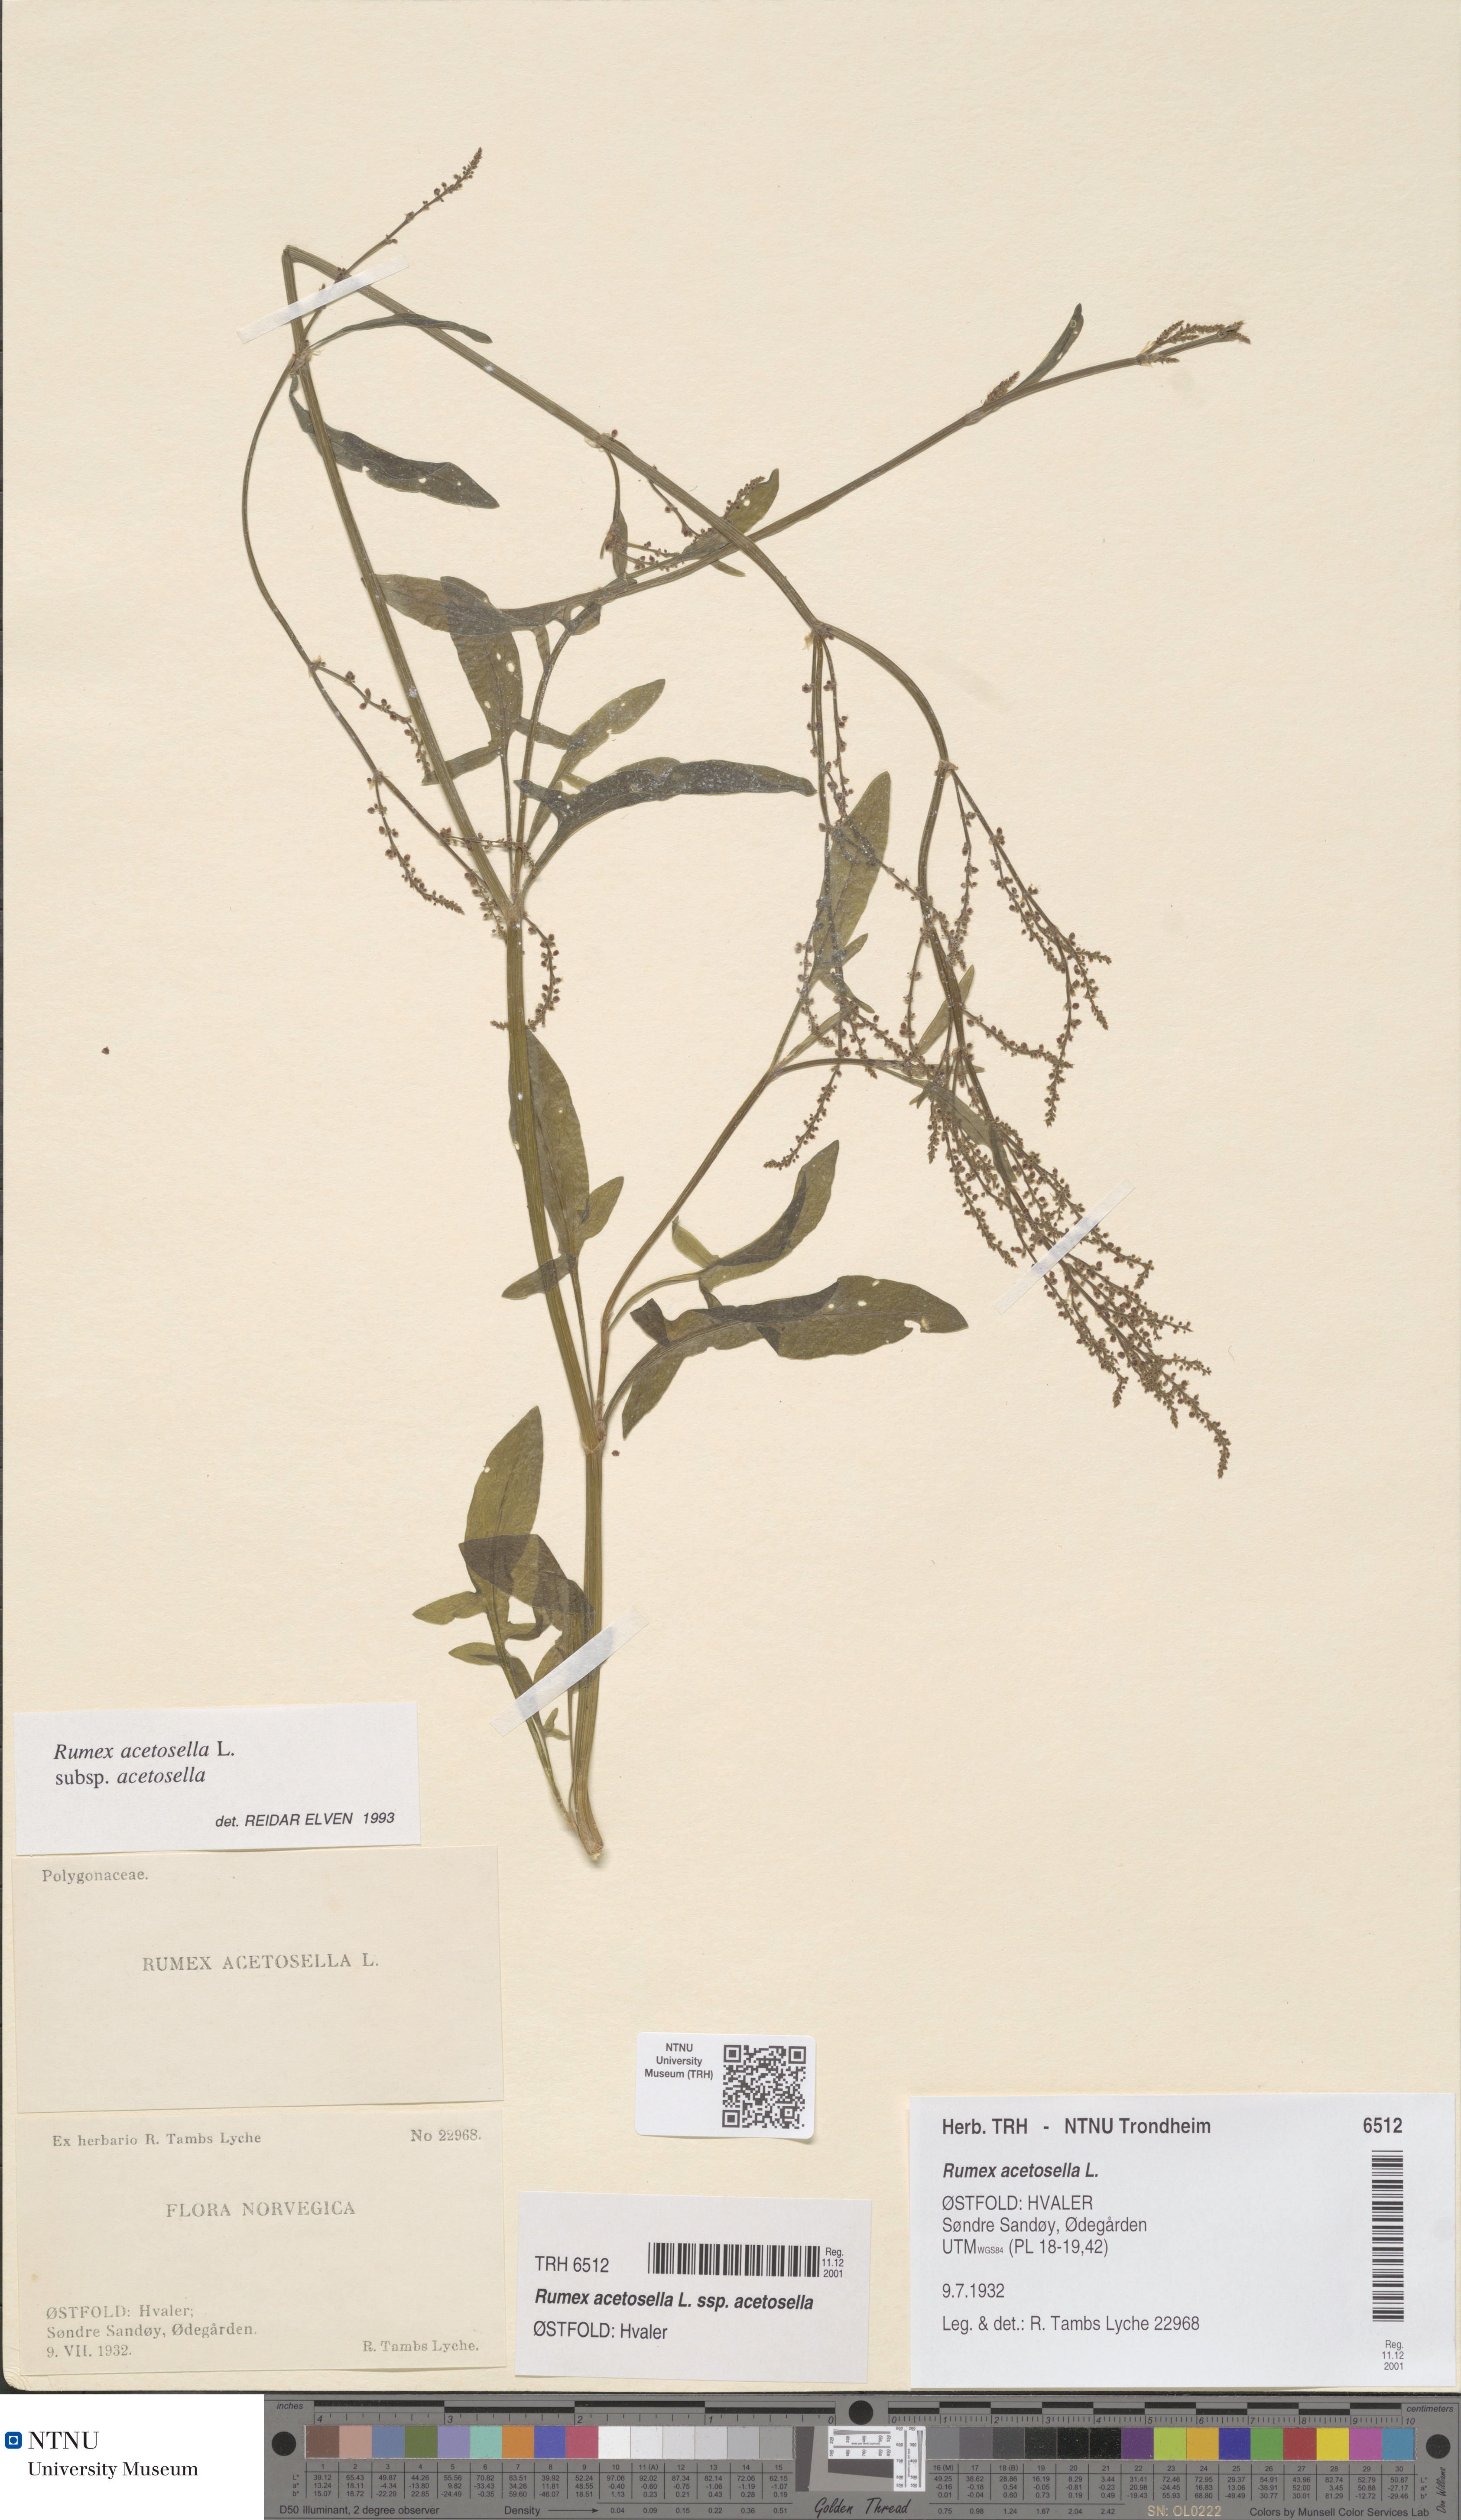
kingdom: Plantae
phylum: Tracheophyta
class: Magnoliopsida
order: Caryophyllales
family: Polygonaceae
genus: Rumex
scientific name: Rumex acetosella
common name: Common sheep sorrel
